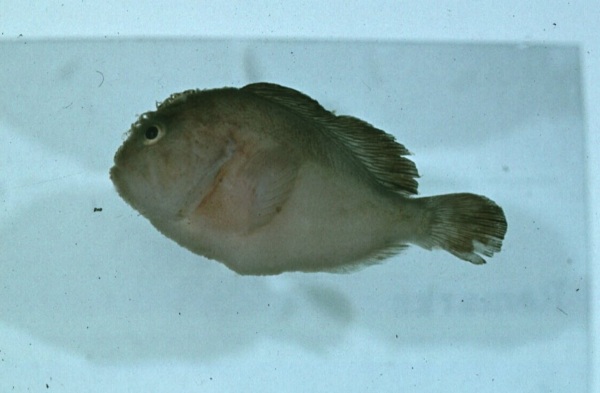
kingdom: Animalia
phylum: Chordata
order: Scorpaeniformes
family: Scorpaenidae
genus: Caracanthus
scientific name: Caracanthus unipinna
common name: Coral croucher
